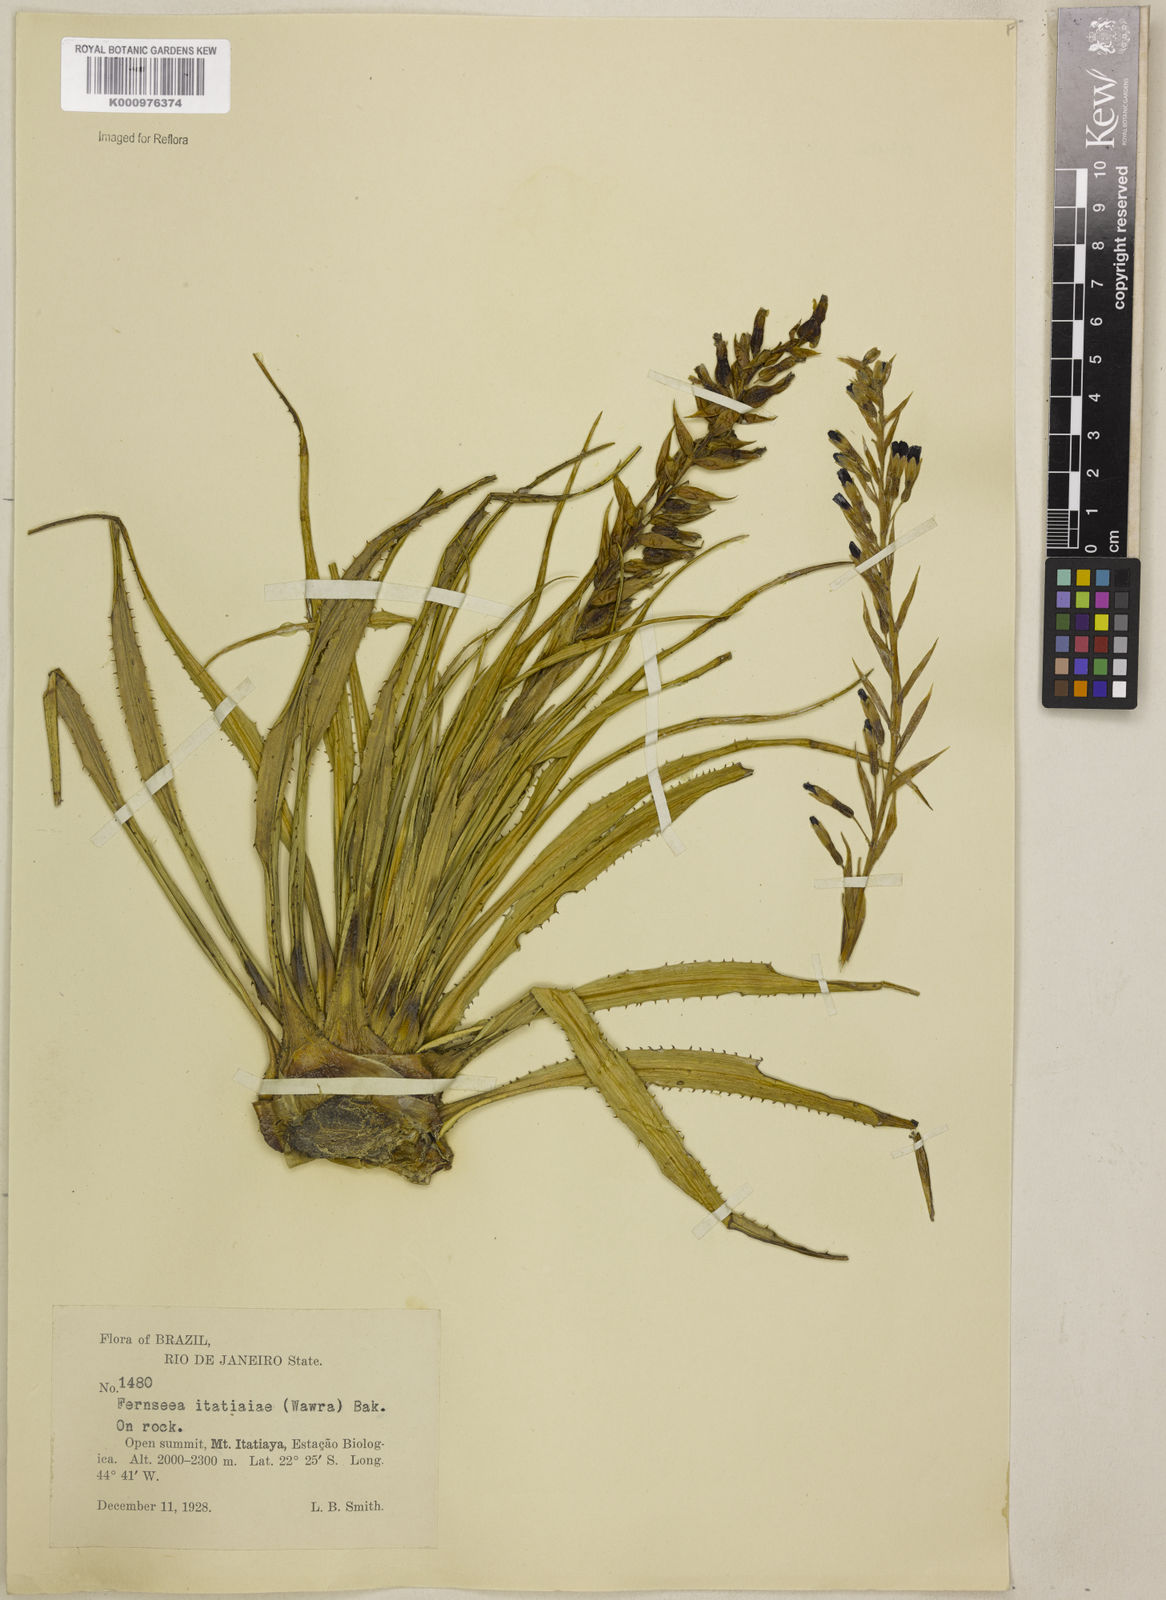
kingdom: Plantae
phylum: Tracheophyta
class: Liliopsida
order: Poales
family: Bromeliaceae
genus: Fernseea
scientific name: Fernseea itatiaiae
